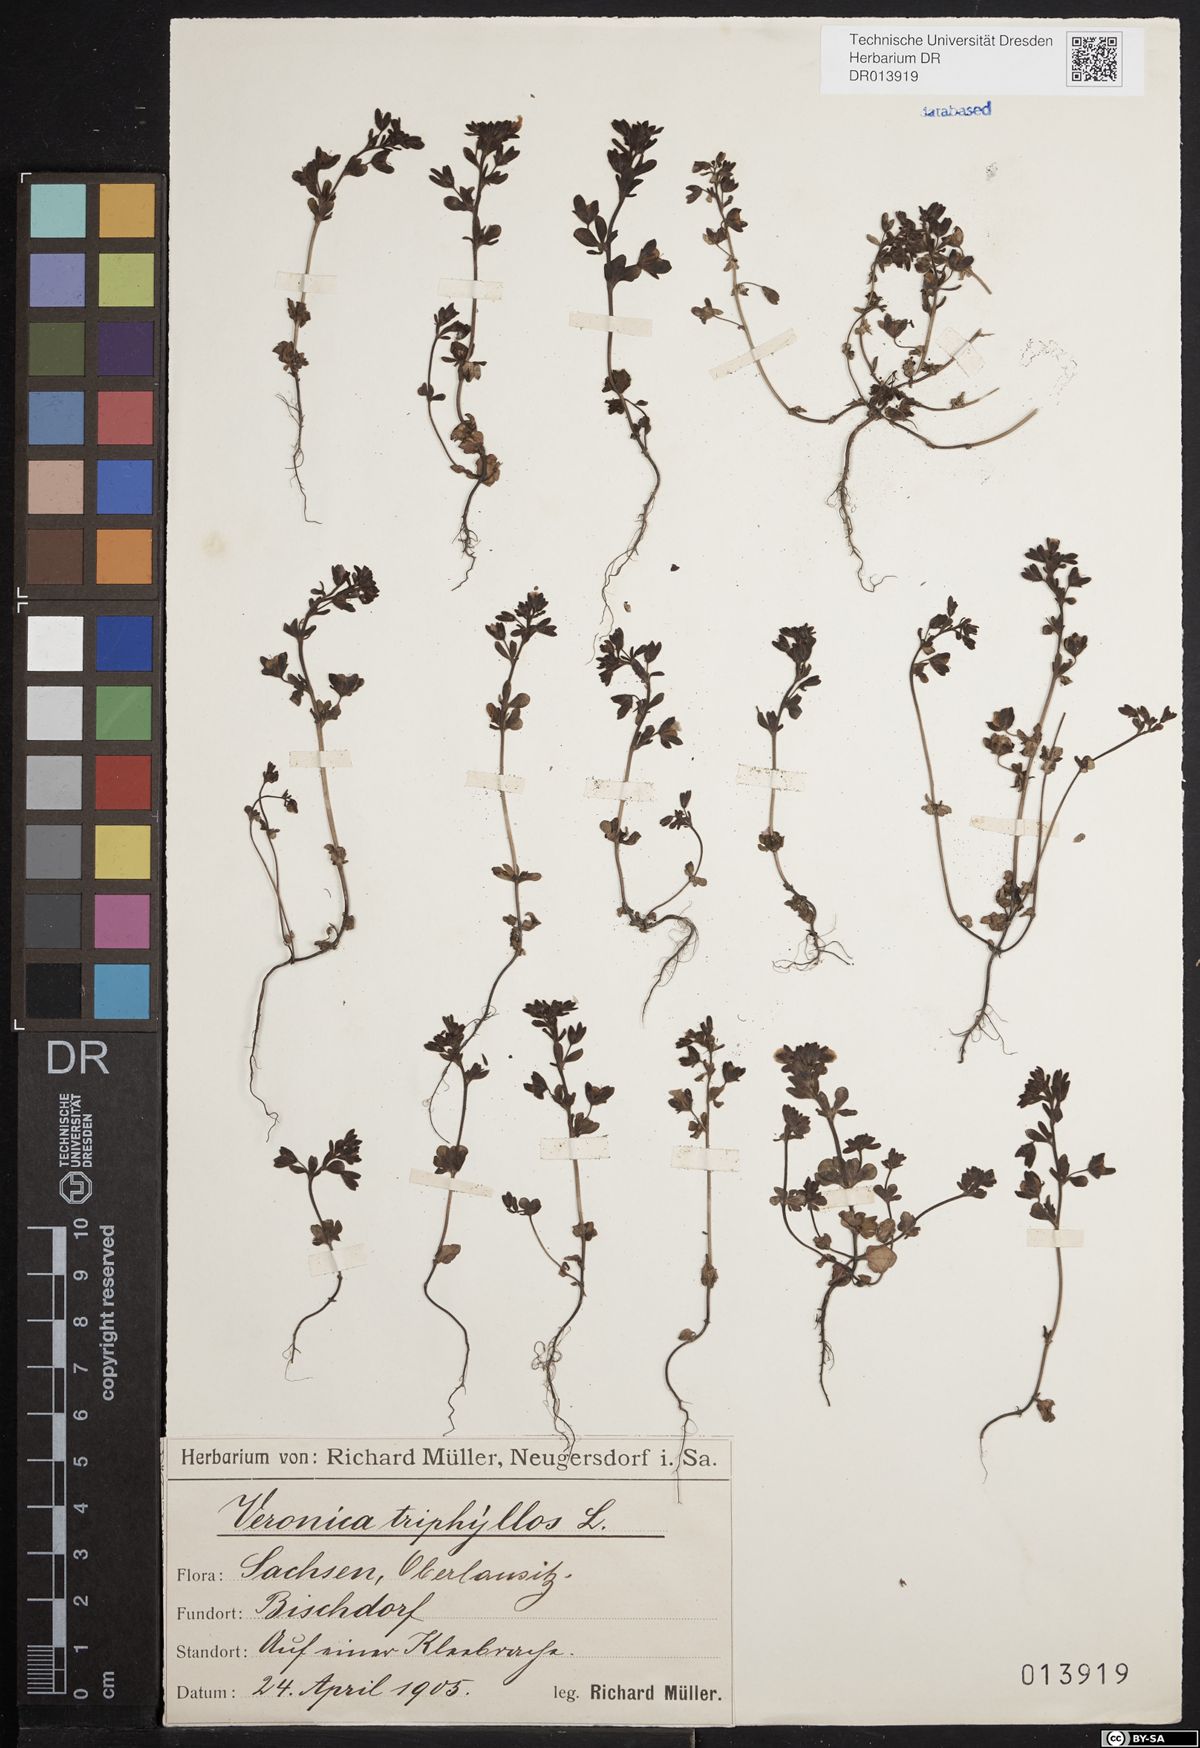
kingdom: Plantae
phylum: Tracheophyta
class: Magnoliopsida
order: Lamiales
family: Plantaginaceae
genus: Veronica
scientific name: Veronica triphyllos
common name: Fingered speedwell
